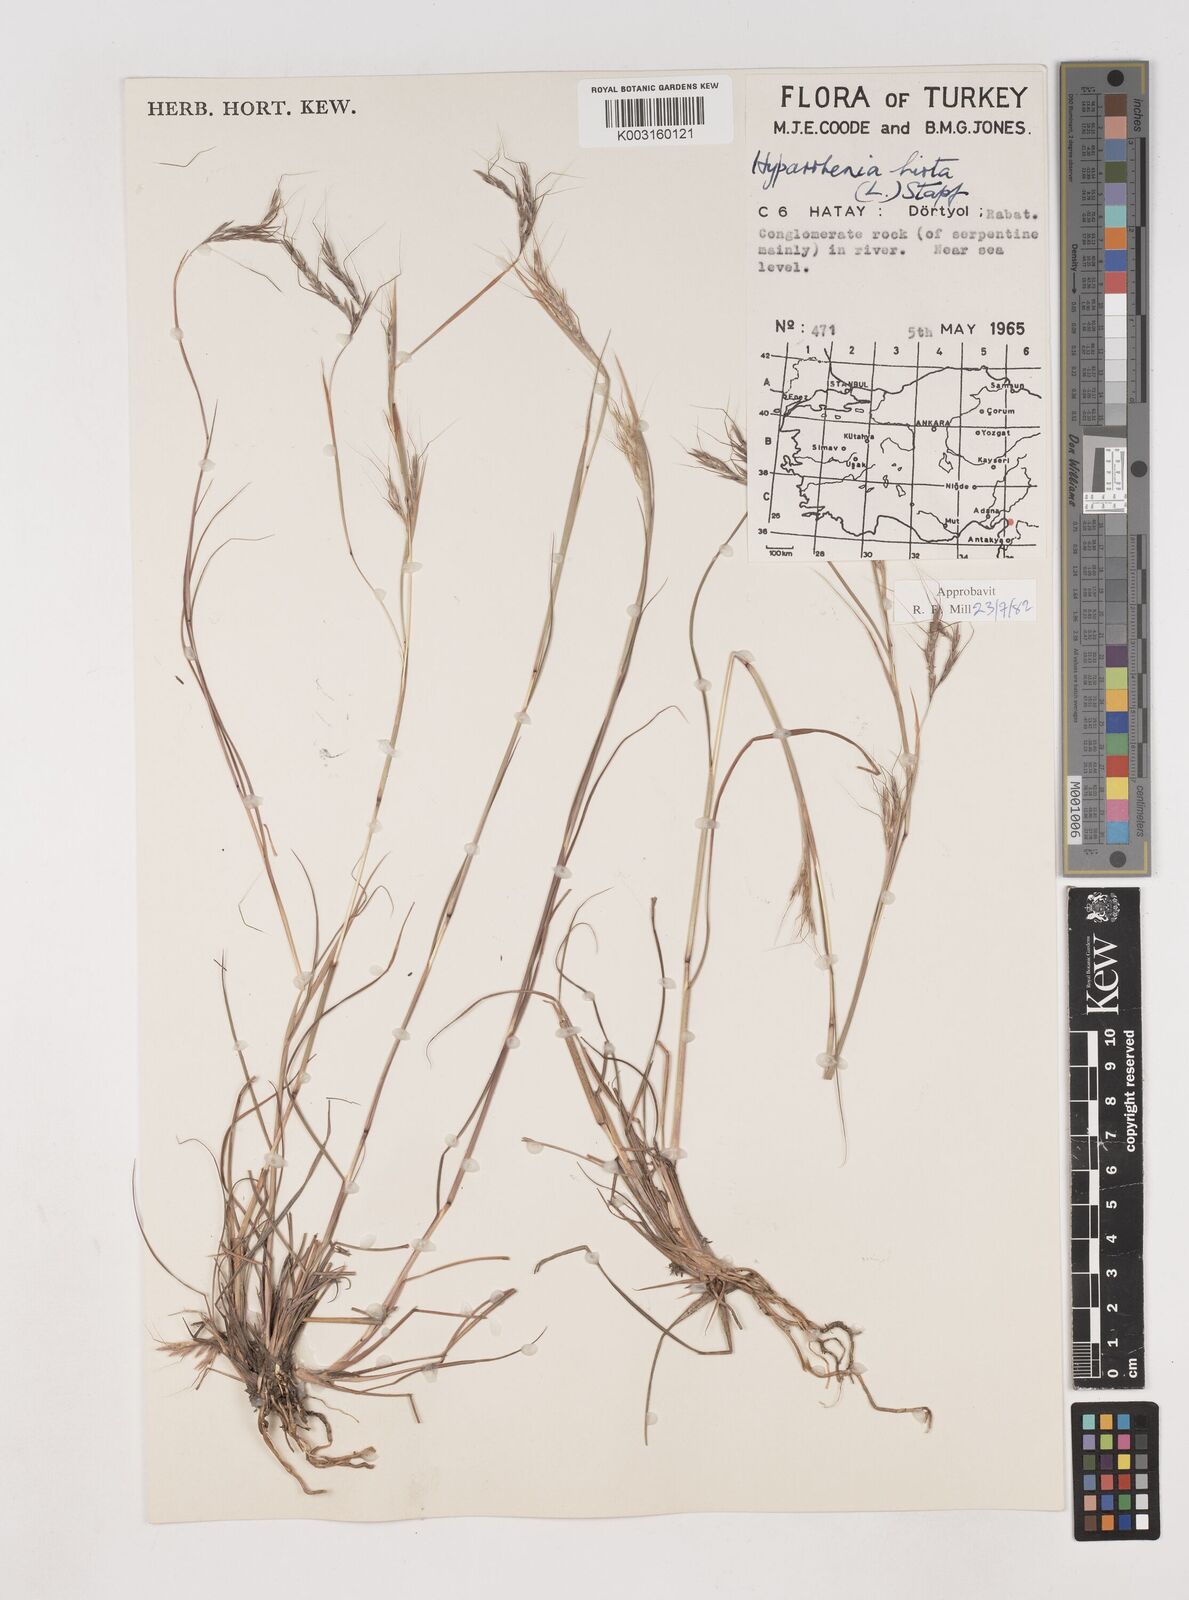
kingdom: Plantae
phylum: Tracheophyta
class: Liliopsida
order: Poales
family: Poaceae
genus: Hyparrhenia
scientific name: Hyparrhenia hirta
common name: Thatching grass
